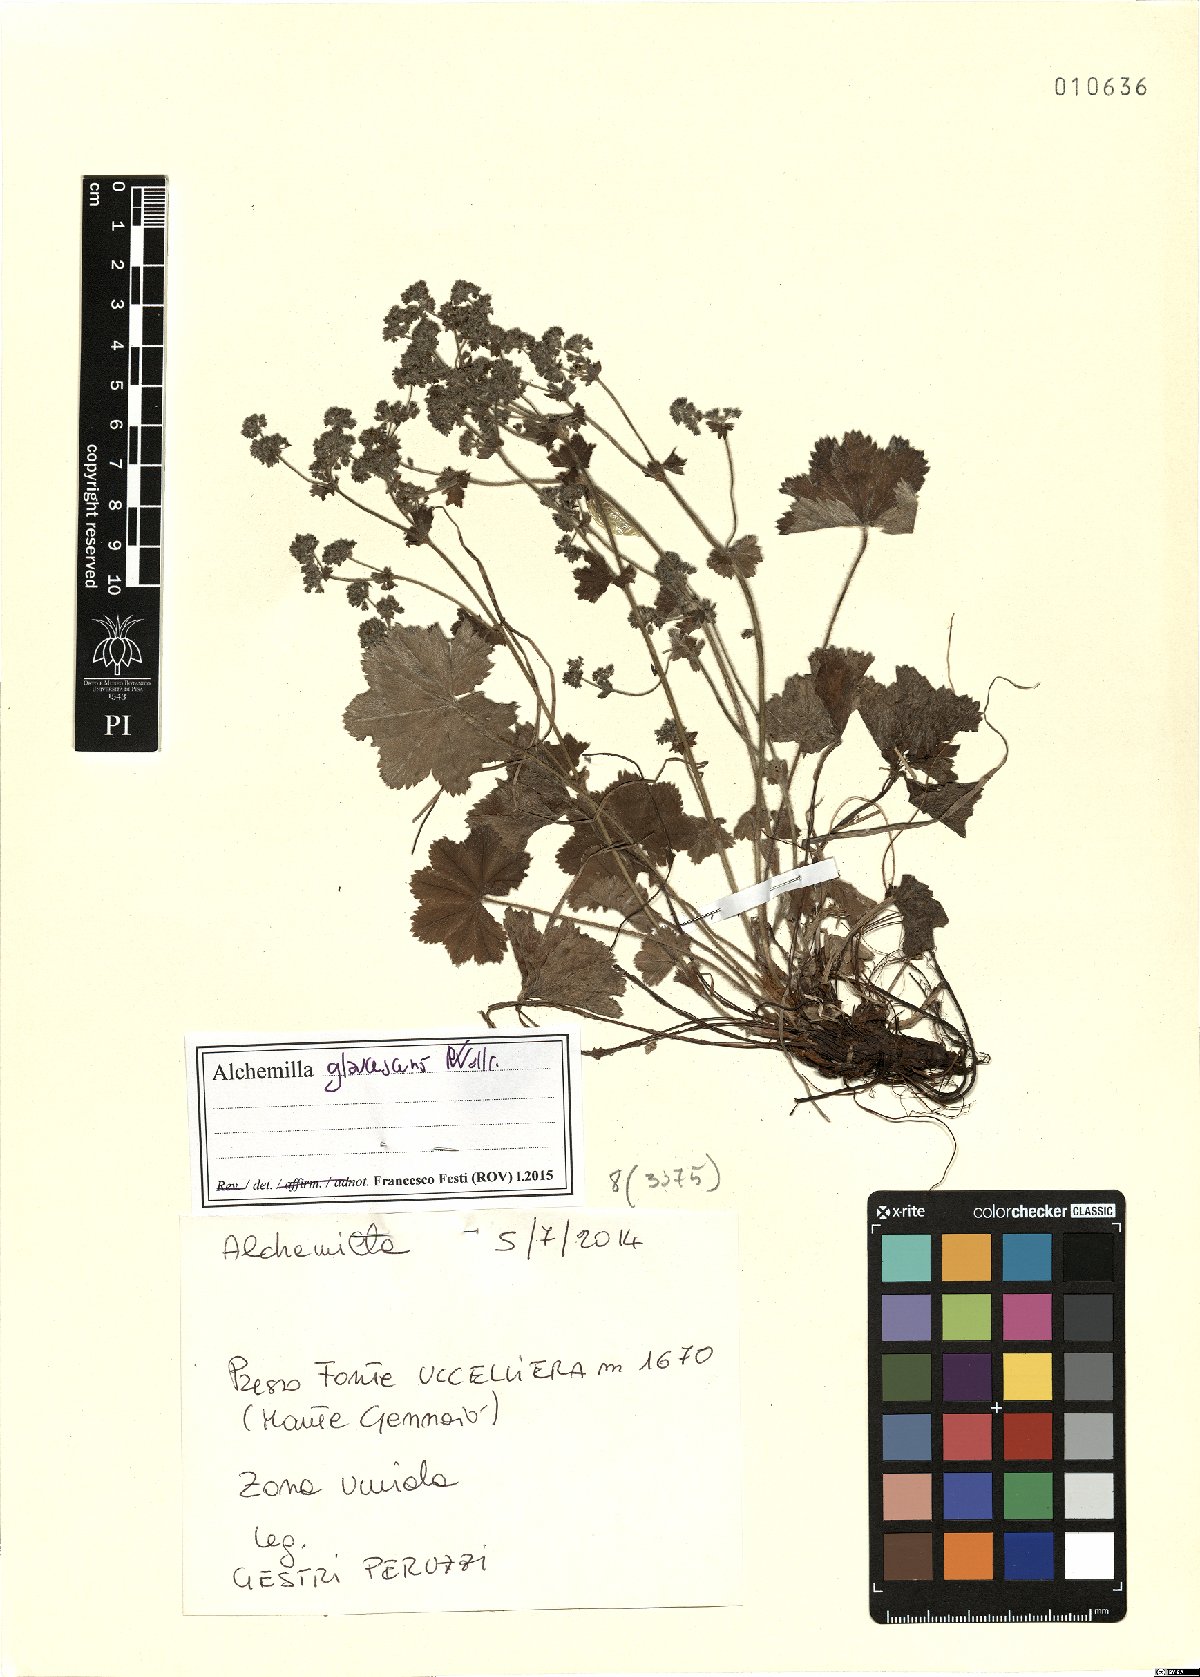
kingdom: Plantae
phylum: Tracheophyta
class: Magnoliopsida
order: Rosales
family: Rosaceae
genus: Alchemilla
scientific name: Alchemilla glaucescens
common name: Silky lady's mantle
